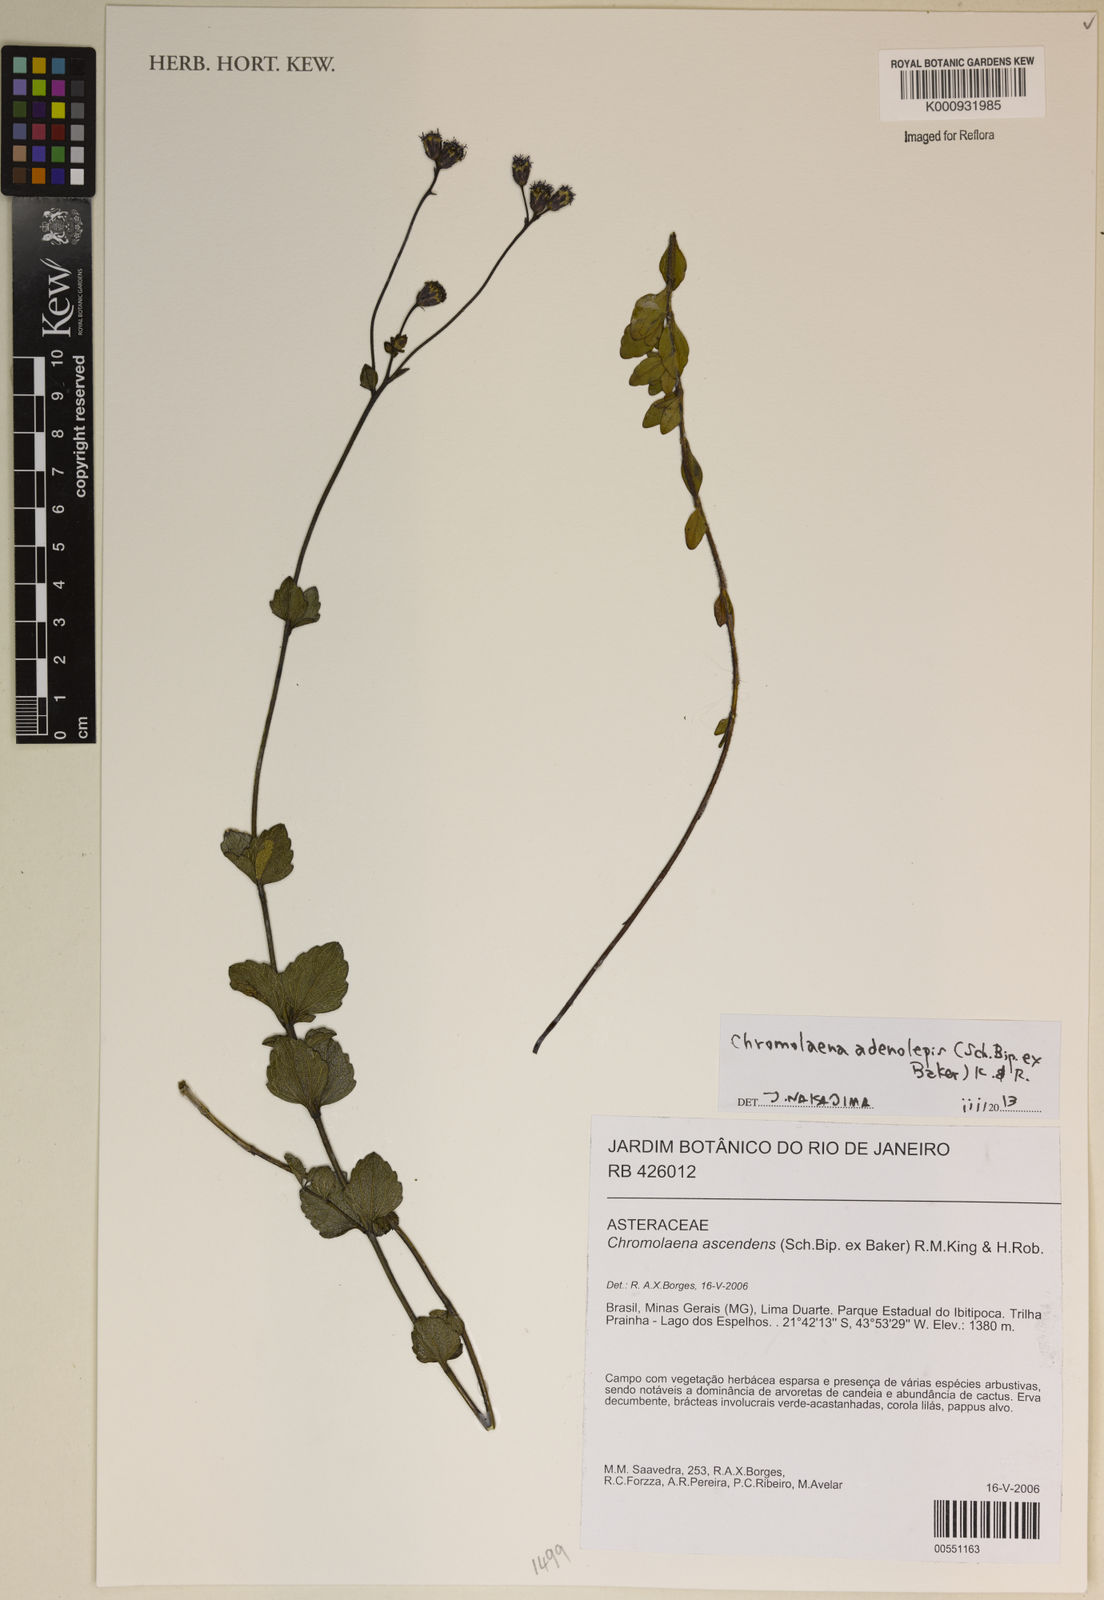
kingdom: Plantae
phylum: Tracheophyta
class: Magnoliopsida
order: Asterales
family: Asteraceae
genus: Chromolaena
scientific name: Chromolaena adenolepis
